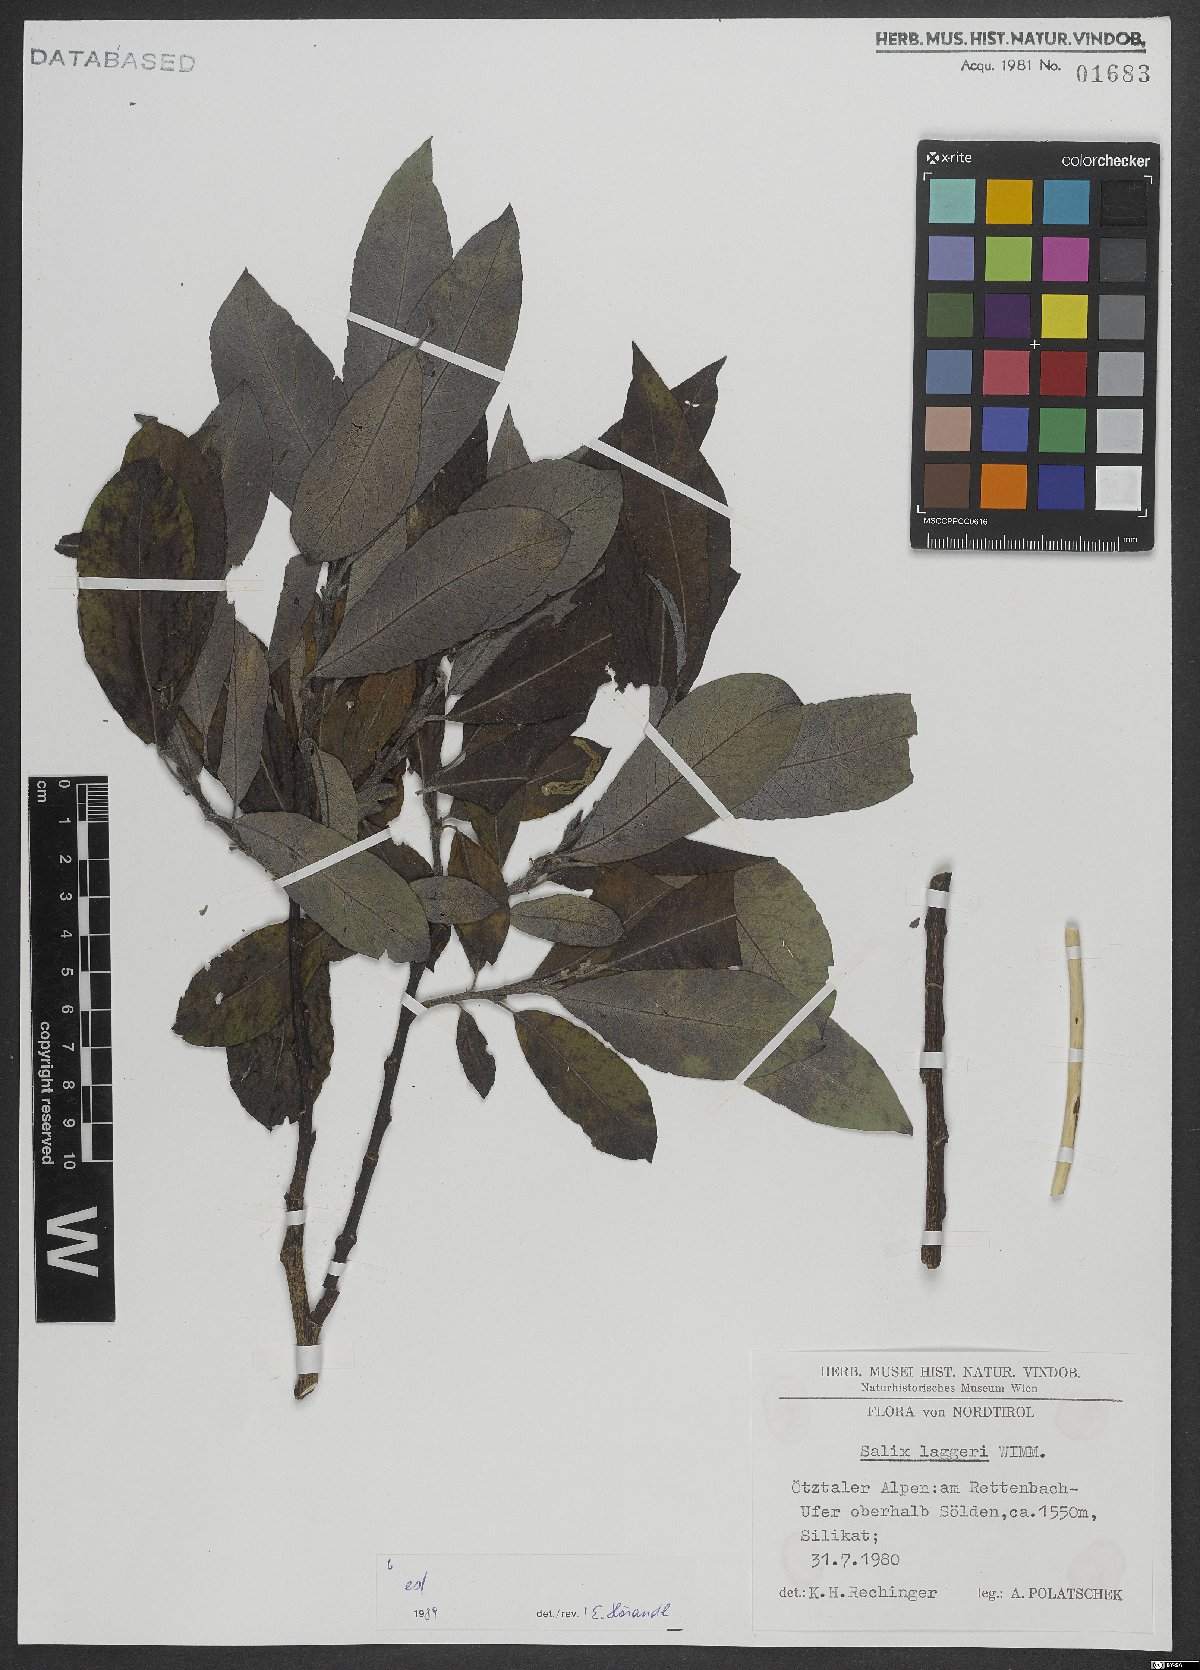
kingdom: Plantae
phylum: Tracheophyta
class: Magnoliopsida
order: Malpighiales
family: Salicaceae
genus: Salix
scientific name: Salix laggeri
